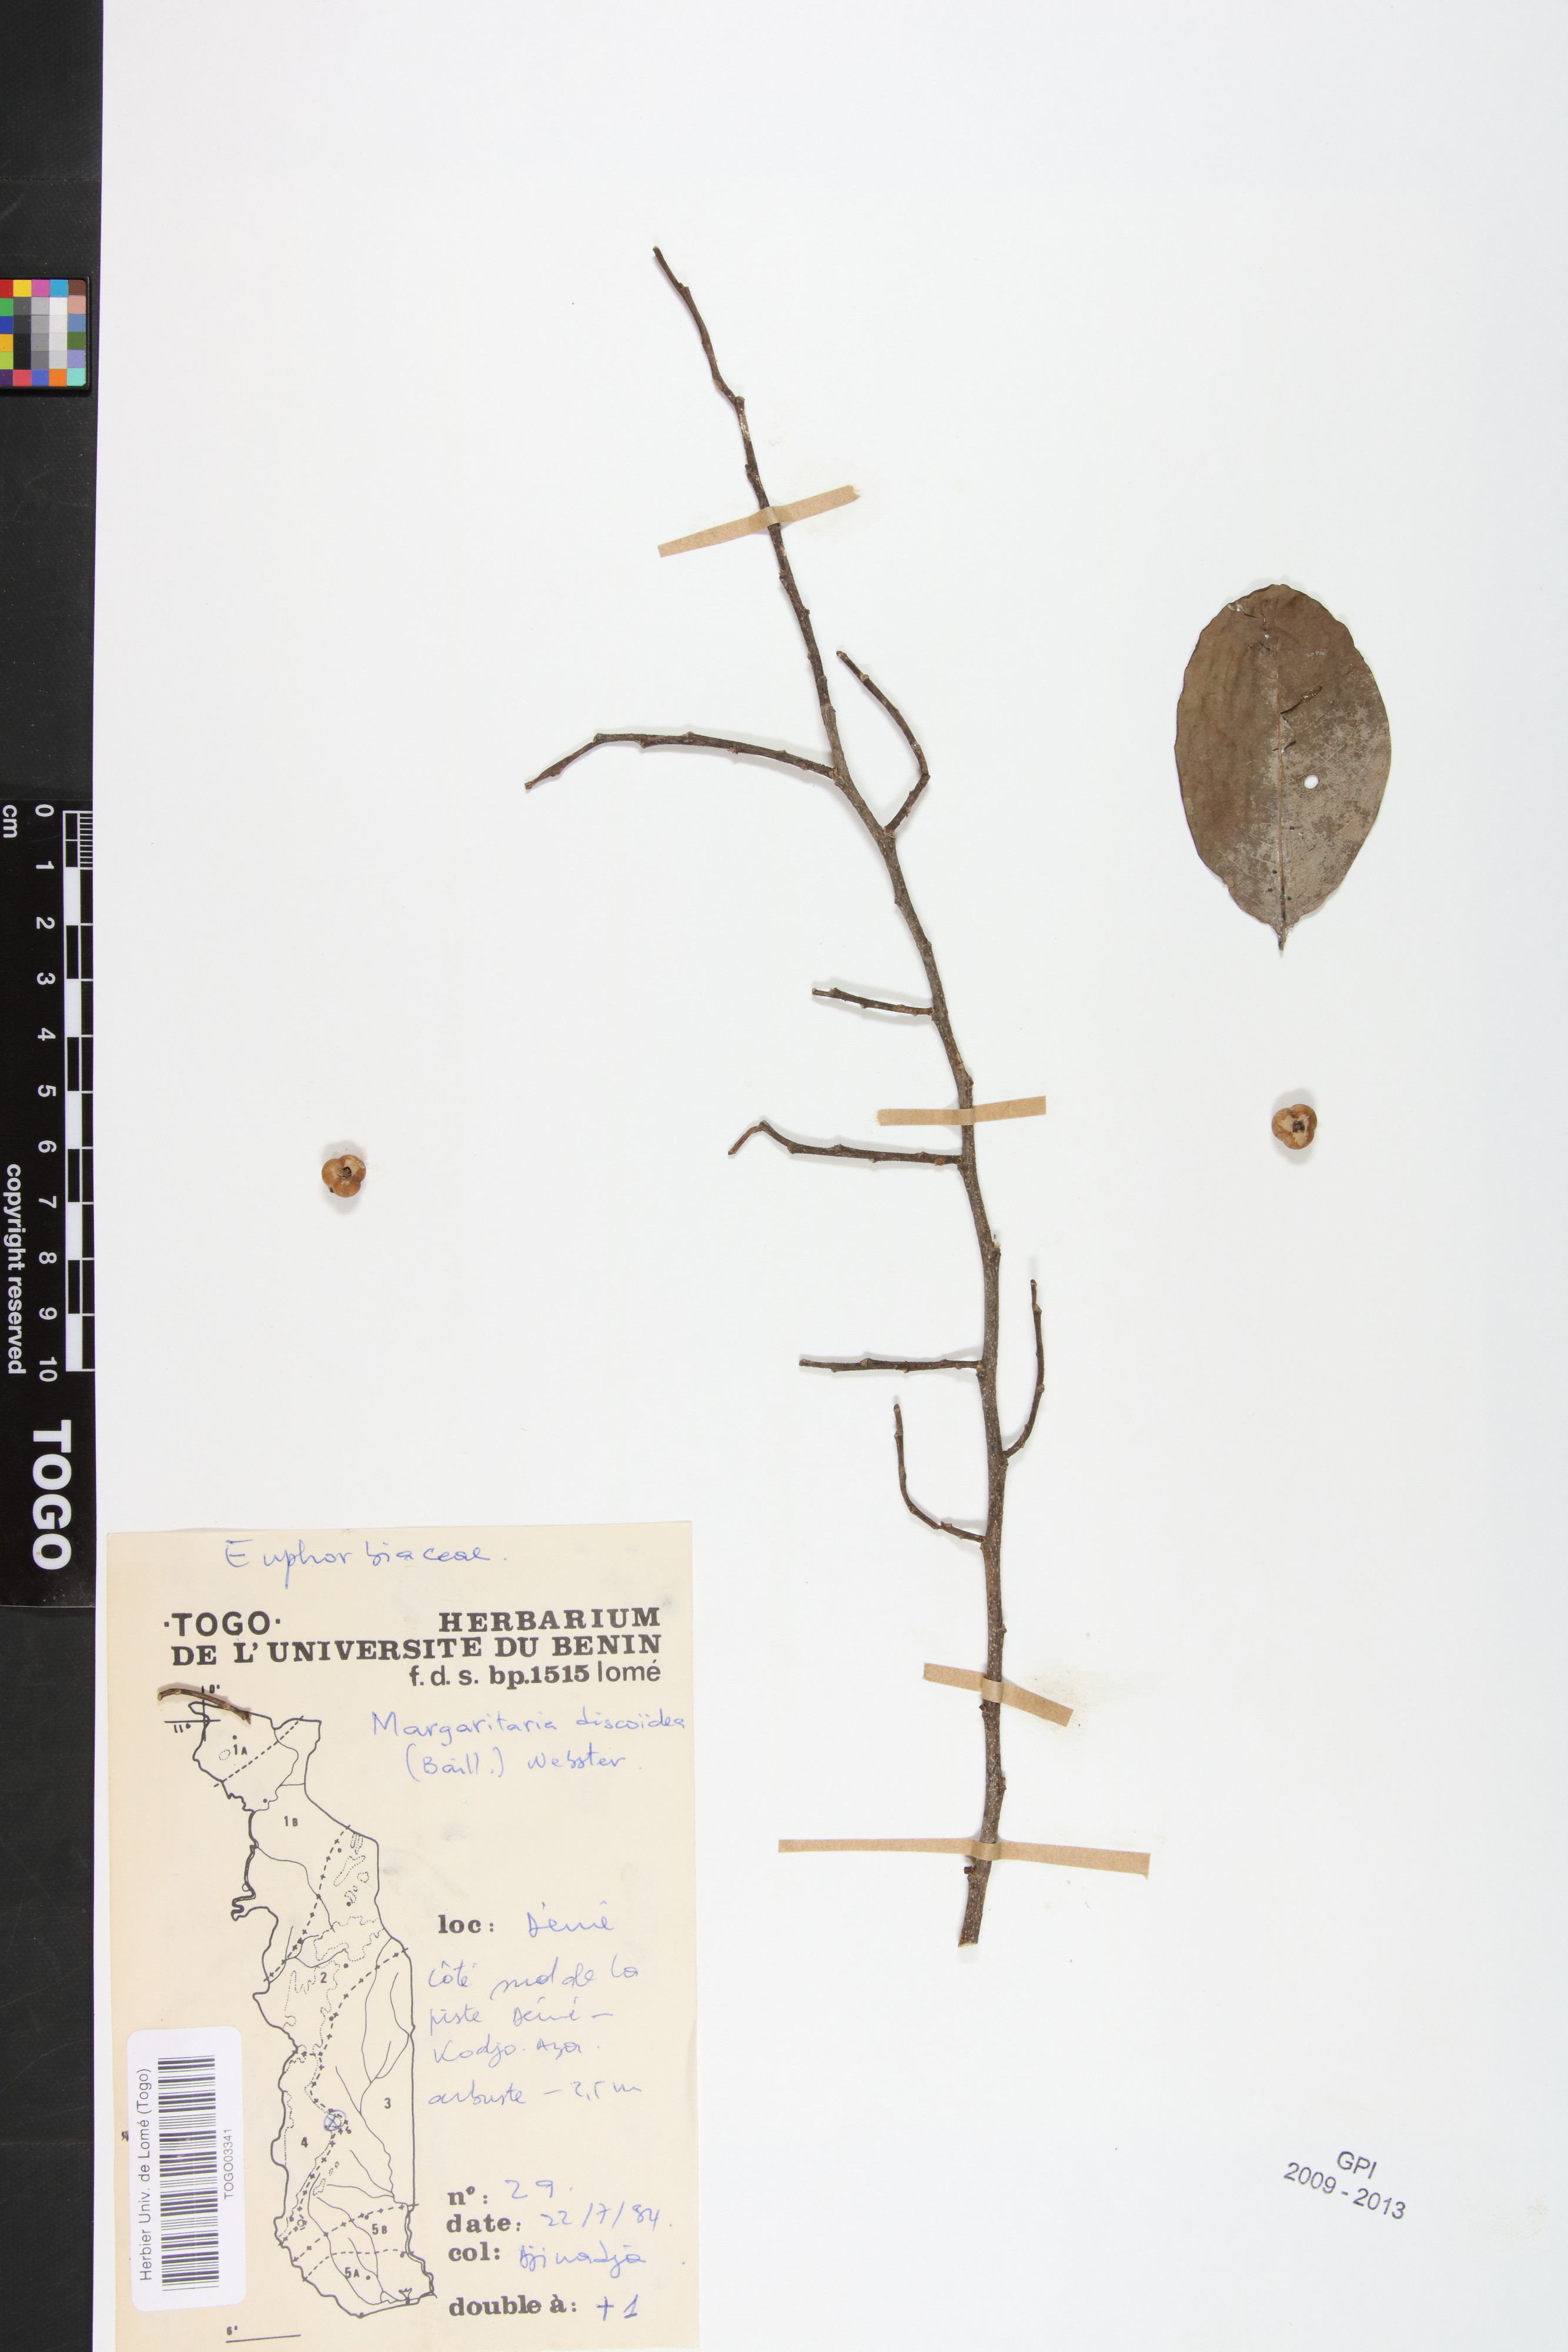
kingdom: Plantae
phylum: Tracheophyta
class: Magnoliopsida
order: Malpighiales
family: Phyllanthaceae
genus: Margaritaria
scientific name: Margaritaria discoidea
